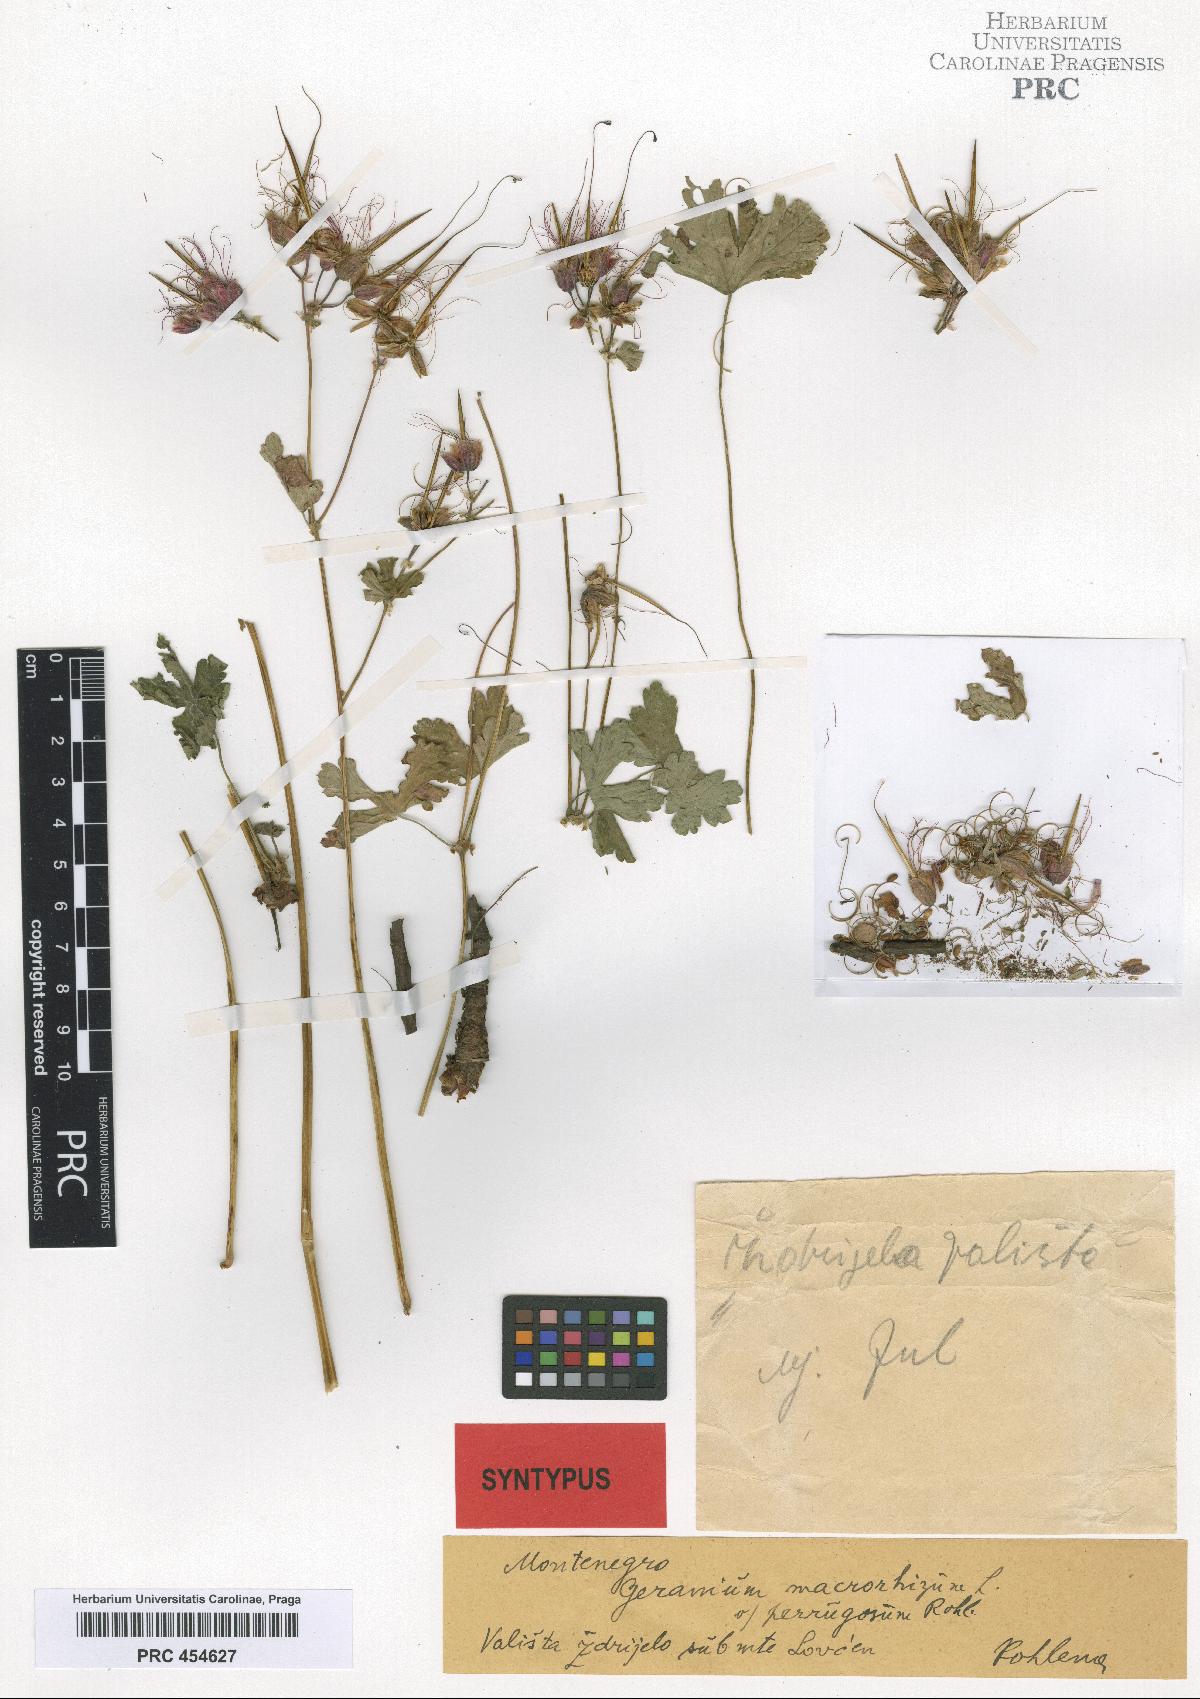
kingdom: Plantae
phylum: Tracheophyta
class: Magnoliopsida
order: Geraniales
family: Geraniaceae
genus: Geranium
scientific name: Geranium macrorrhizum
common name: Rock crane's-bill
